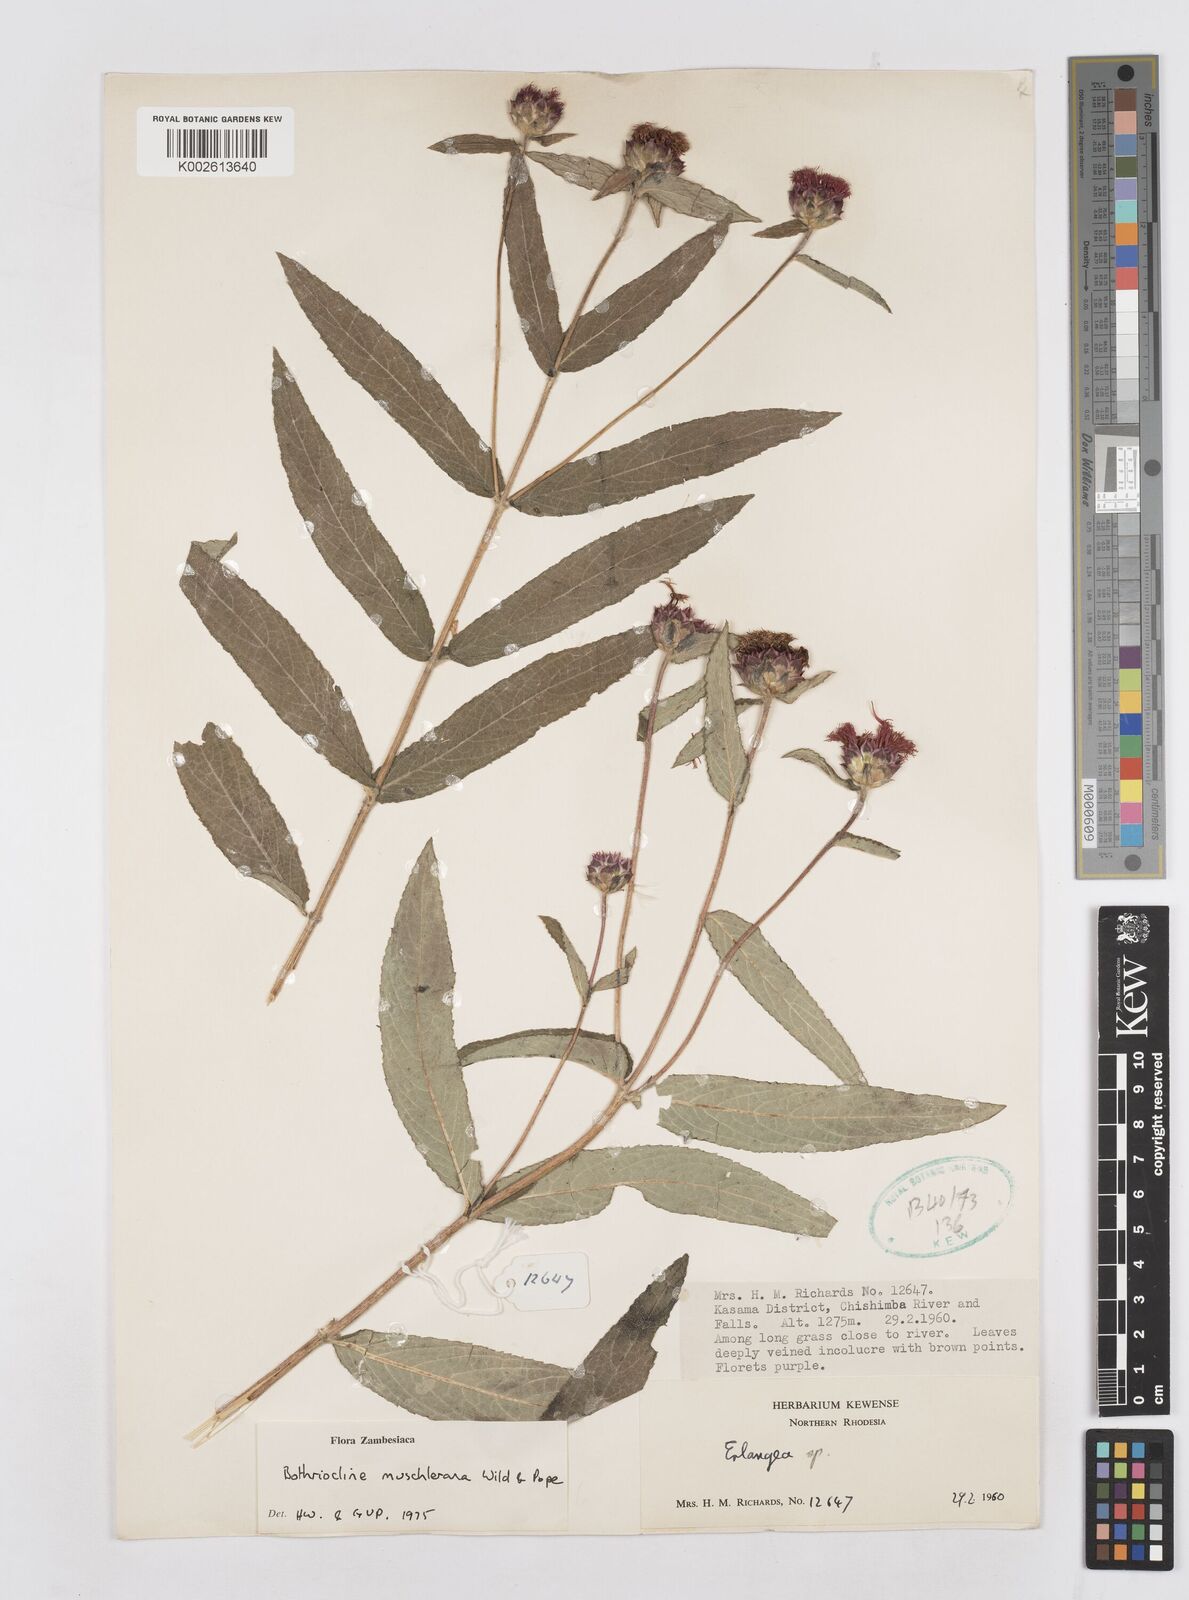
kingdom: Plantae
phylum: Tracheophyta
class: Magnoliopsida
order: Asterales
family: Asteraceae
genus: Bothriocline
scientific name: Bothriocline muschleriana
